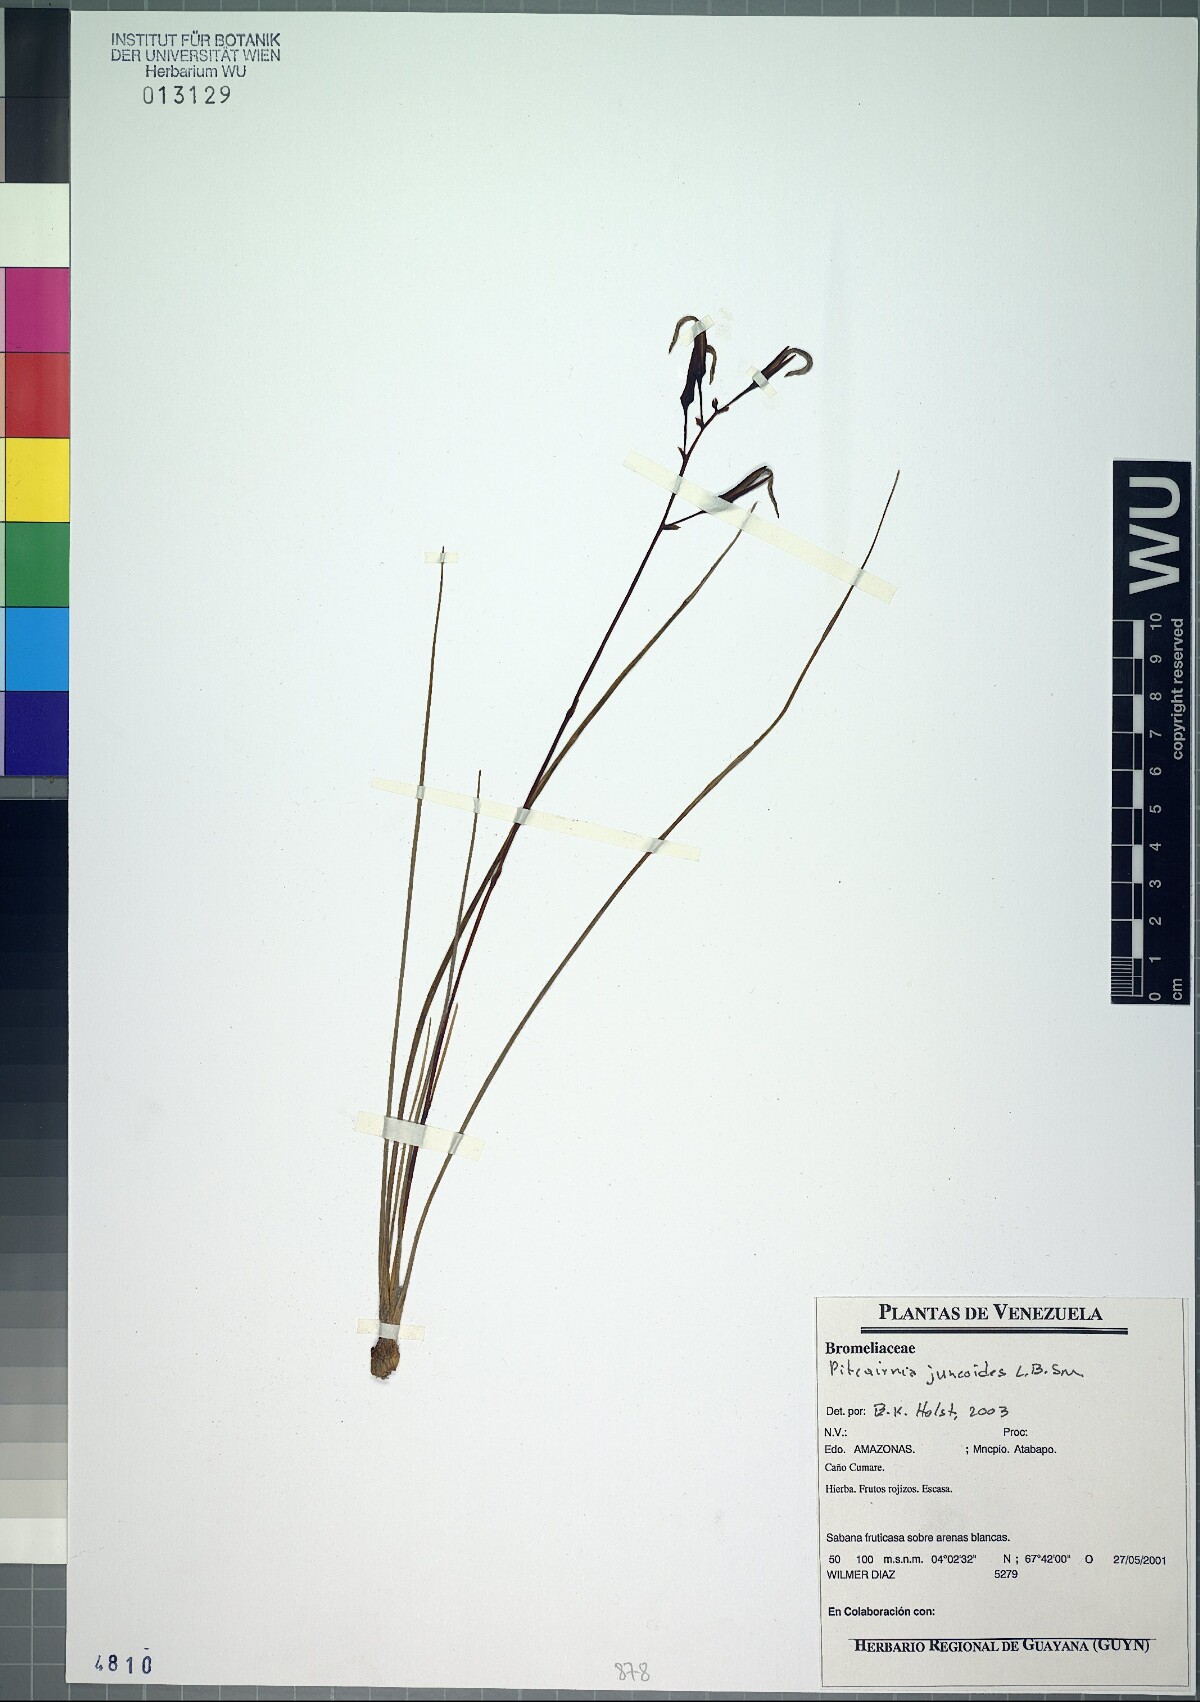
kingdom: Plantae
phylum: Tracheophyta
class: Liliopsida
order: Poales
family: Bromeliaceae
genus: Pitcairnia
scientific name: Pitcairnia juncoides
